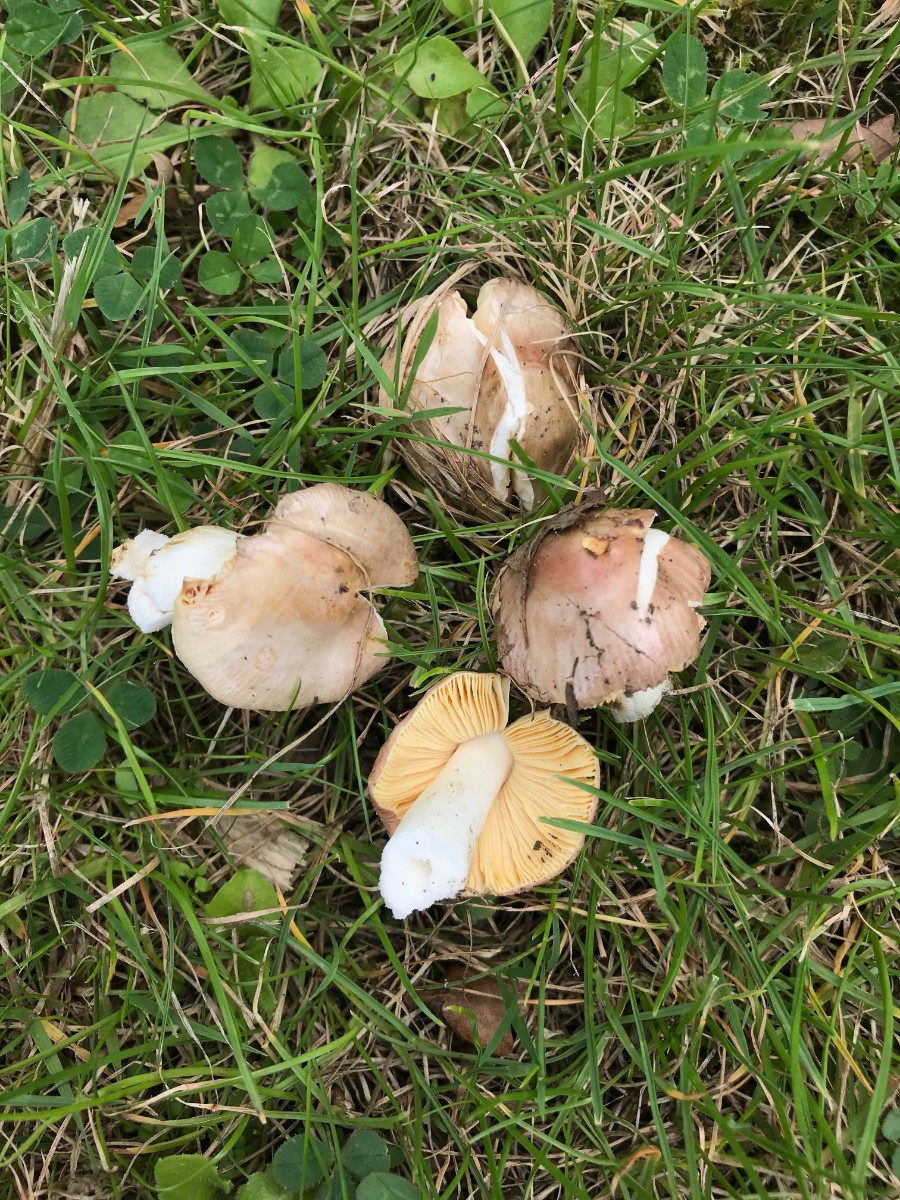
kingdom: Fungi
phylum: Basidiomycota
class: Agaricomycetes
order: Russulales
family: Russulaceae
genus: Russula
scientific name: Russula odorata
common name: duft-skørhat
